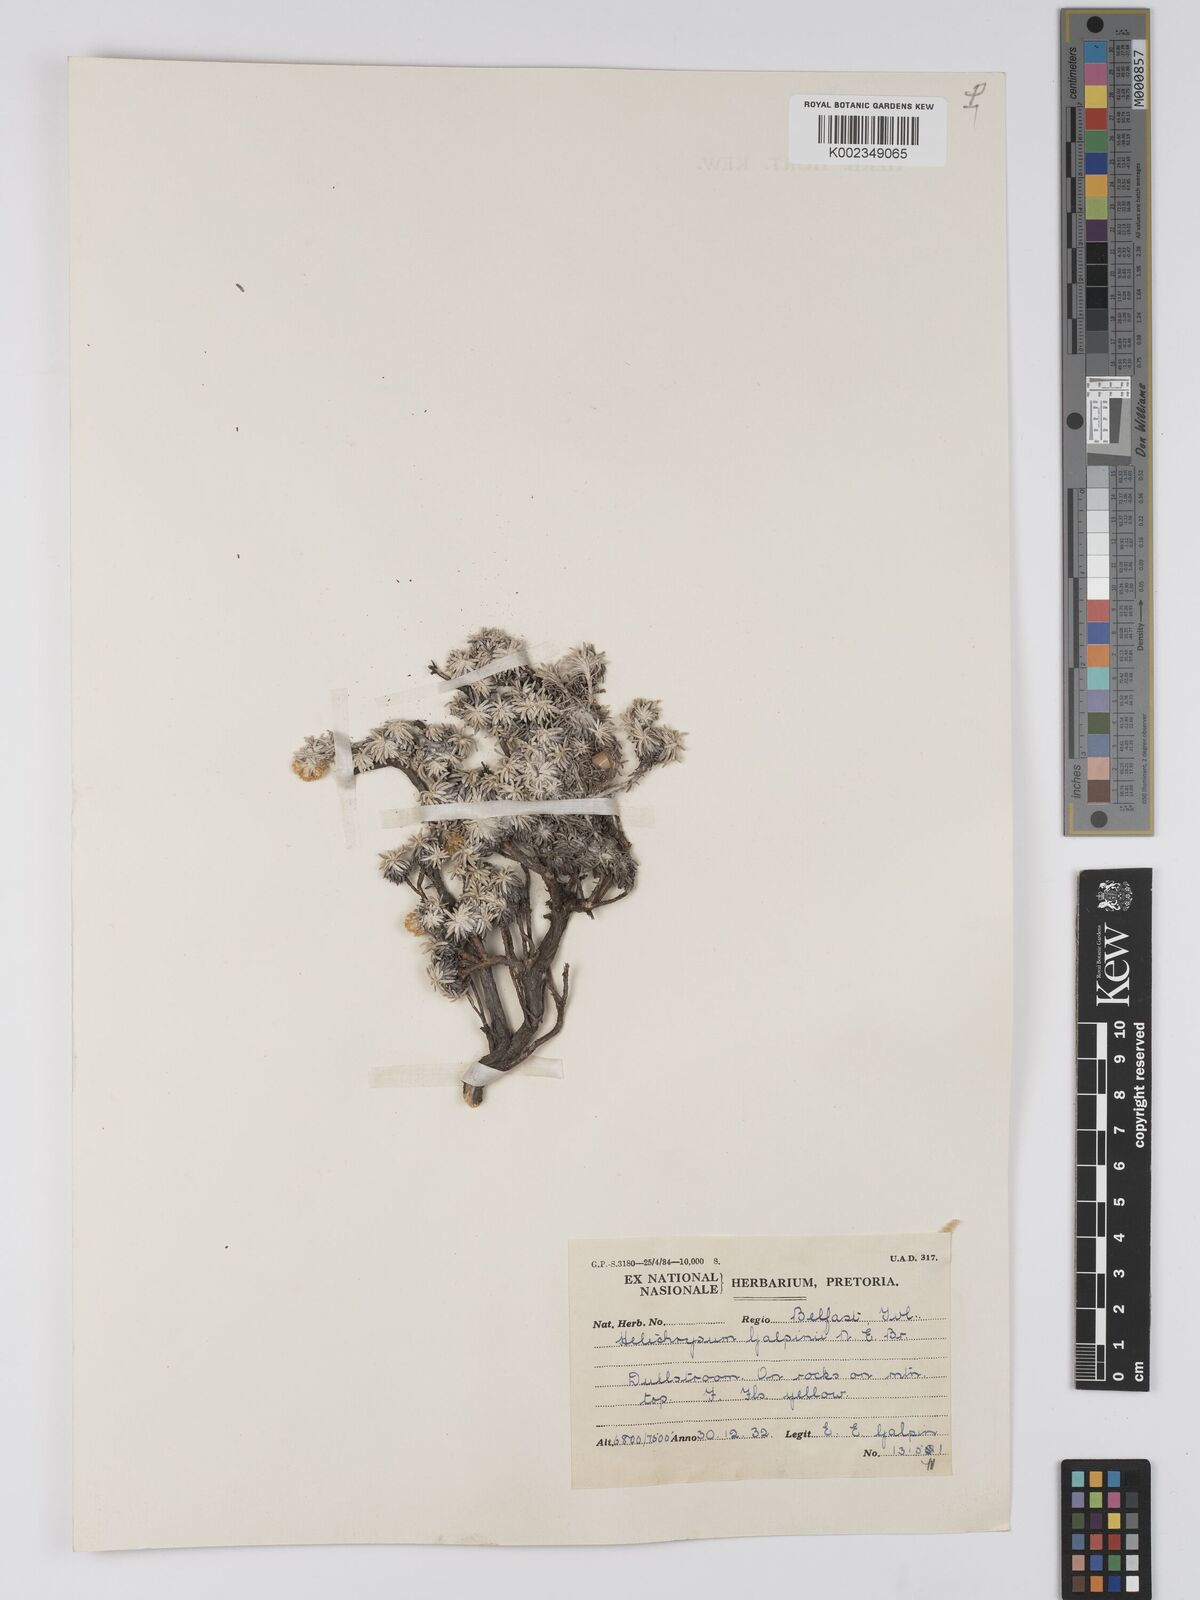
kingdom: Plantae
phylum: Tracheophyta
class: Magnoliopsida
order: Asterales
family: Asteraceae
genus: Helichrysum
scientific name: Helichrysum galpinii
